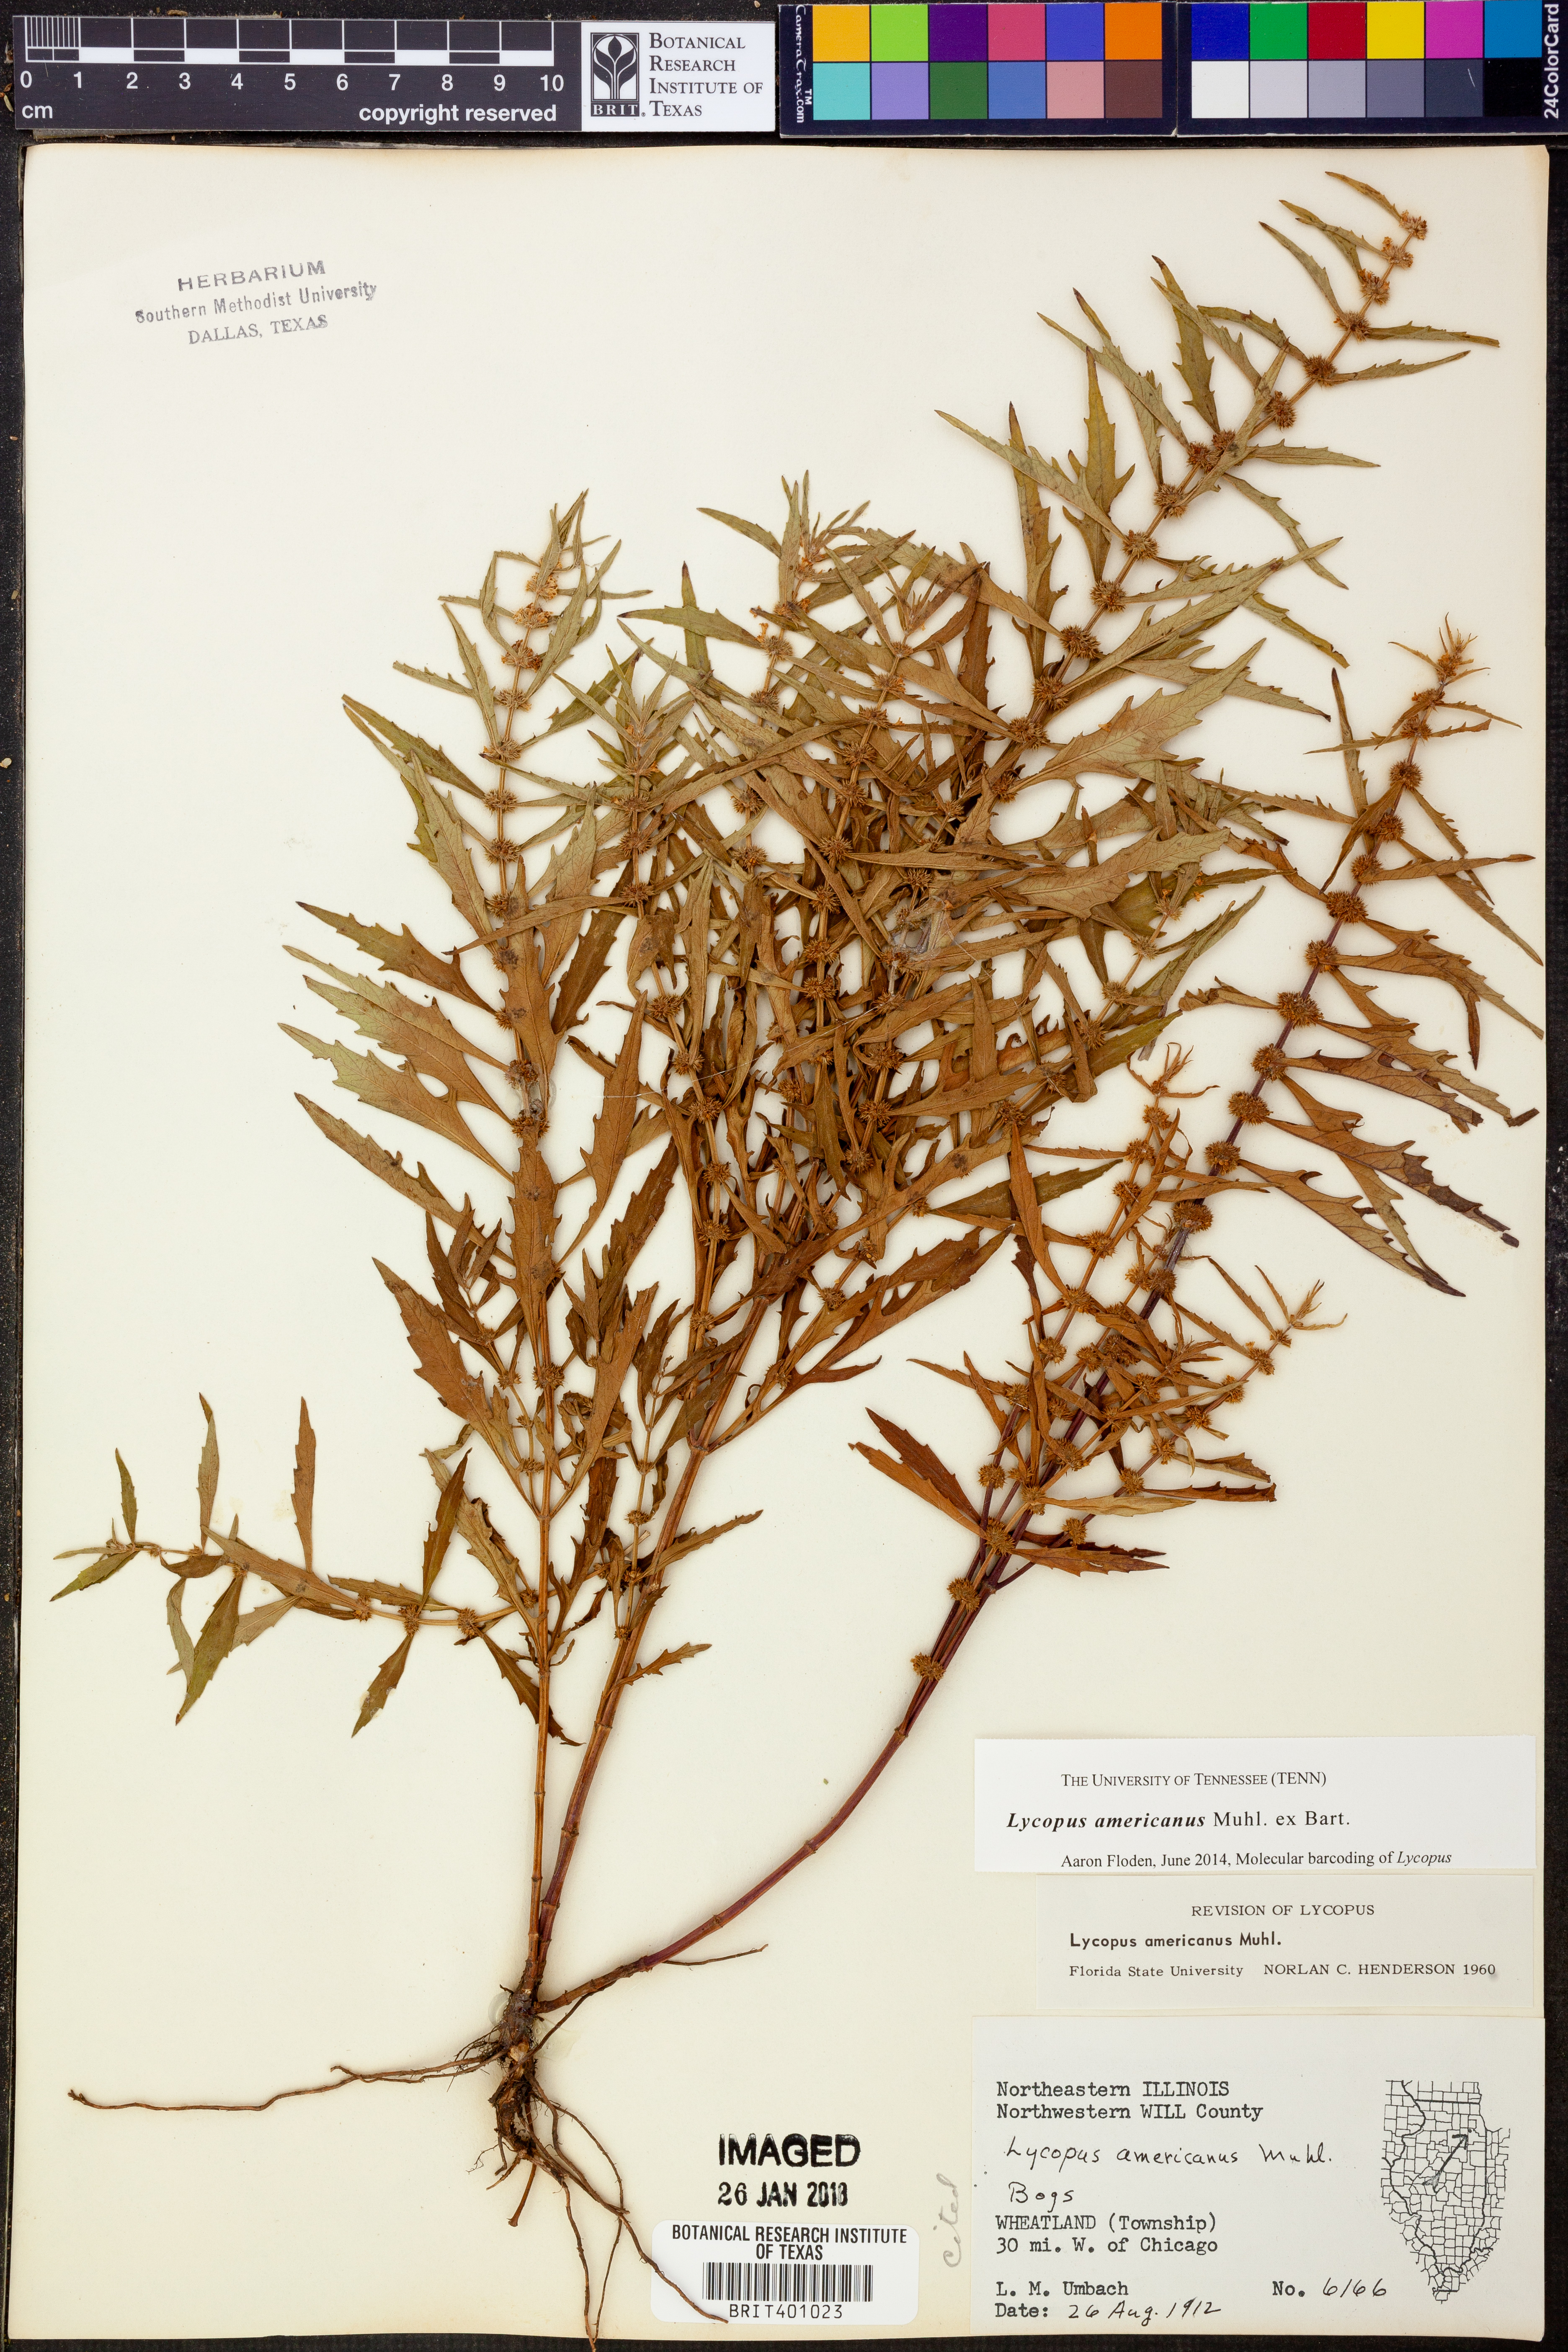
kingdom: Plantae
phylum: Tracheophyta
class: Magnoliopsida
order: Lamiales
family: Lamiaceae
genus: Lycopus
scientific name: Lycopus americanus
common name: American bugleweed
